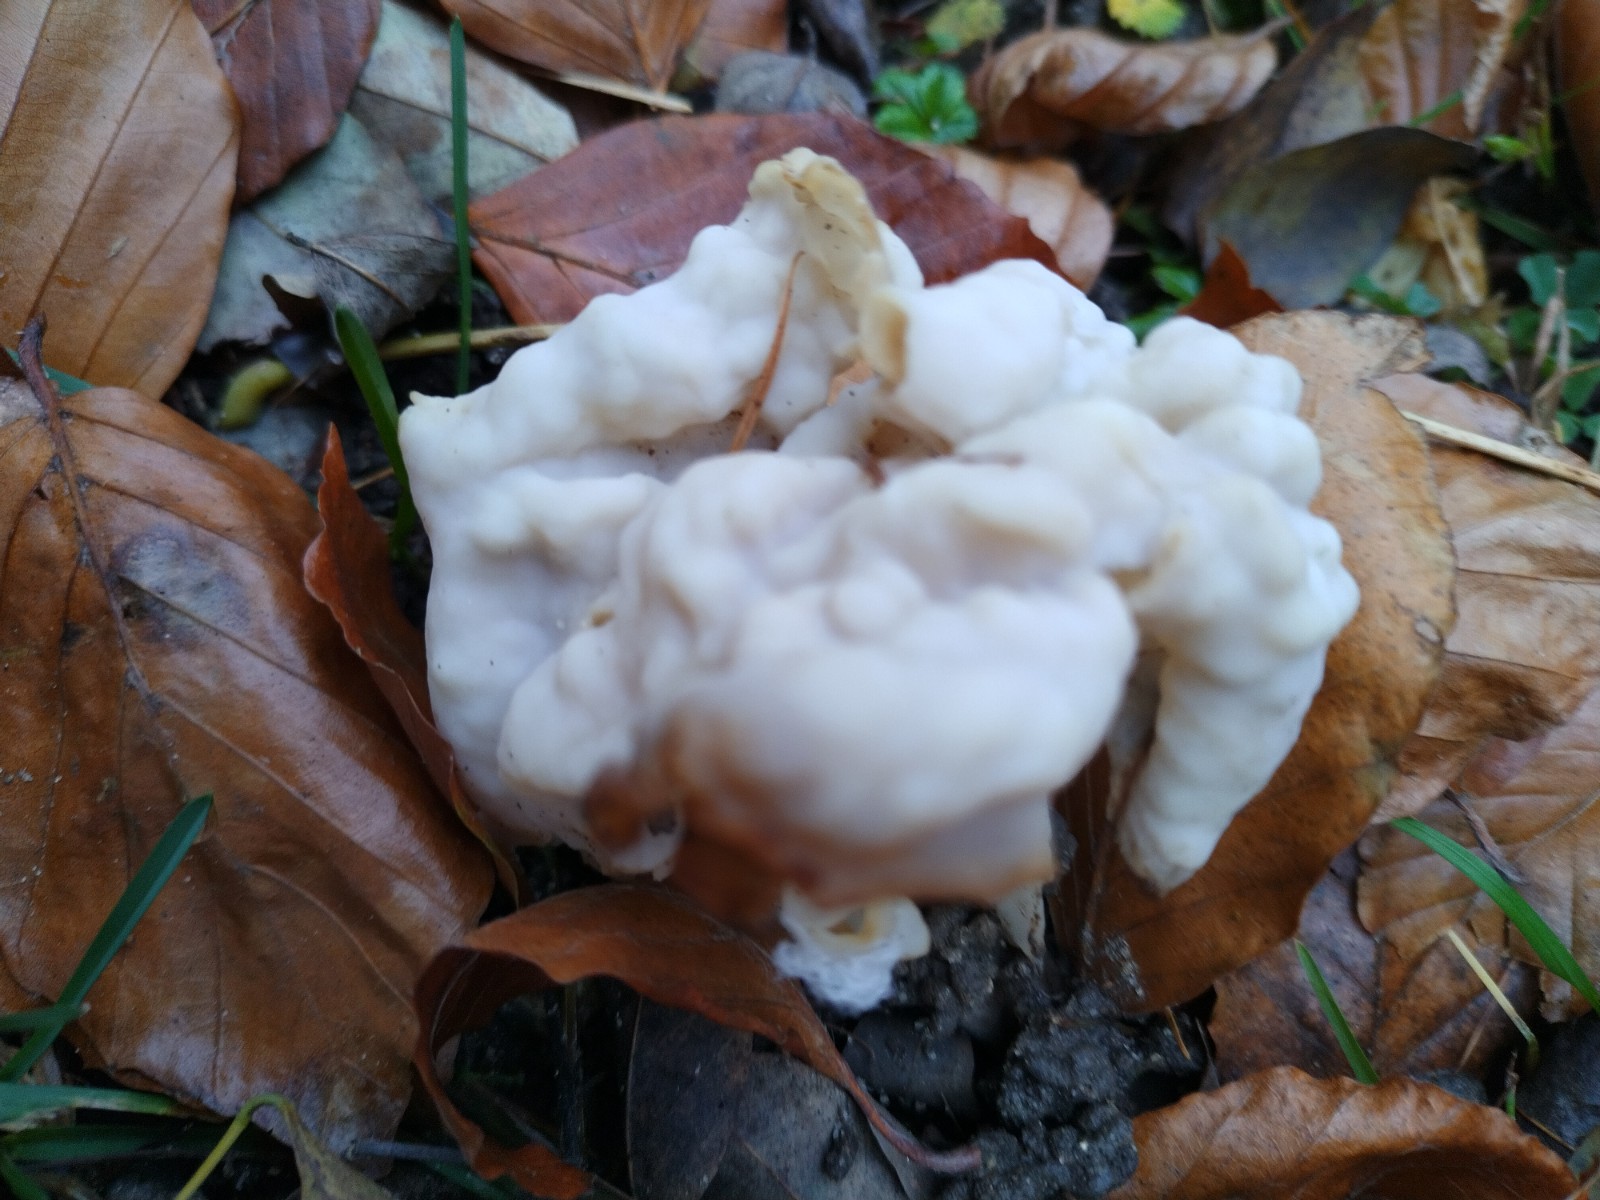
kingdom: Fungi
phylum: Ascomycota
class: Pezizomycetes
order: Pezizales
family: Helvellaceae
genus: Helvella
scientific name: Helvella crispa
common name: kruset foldhat
